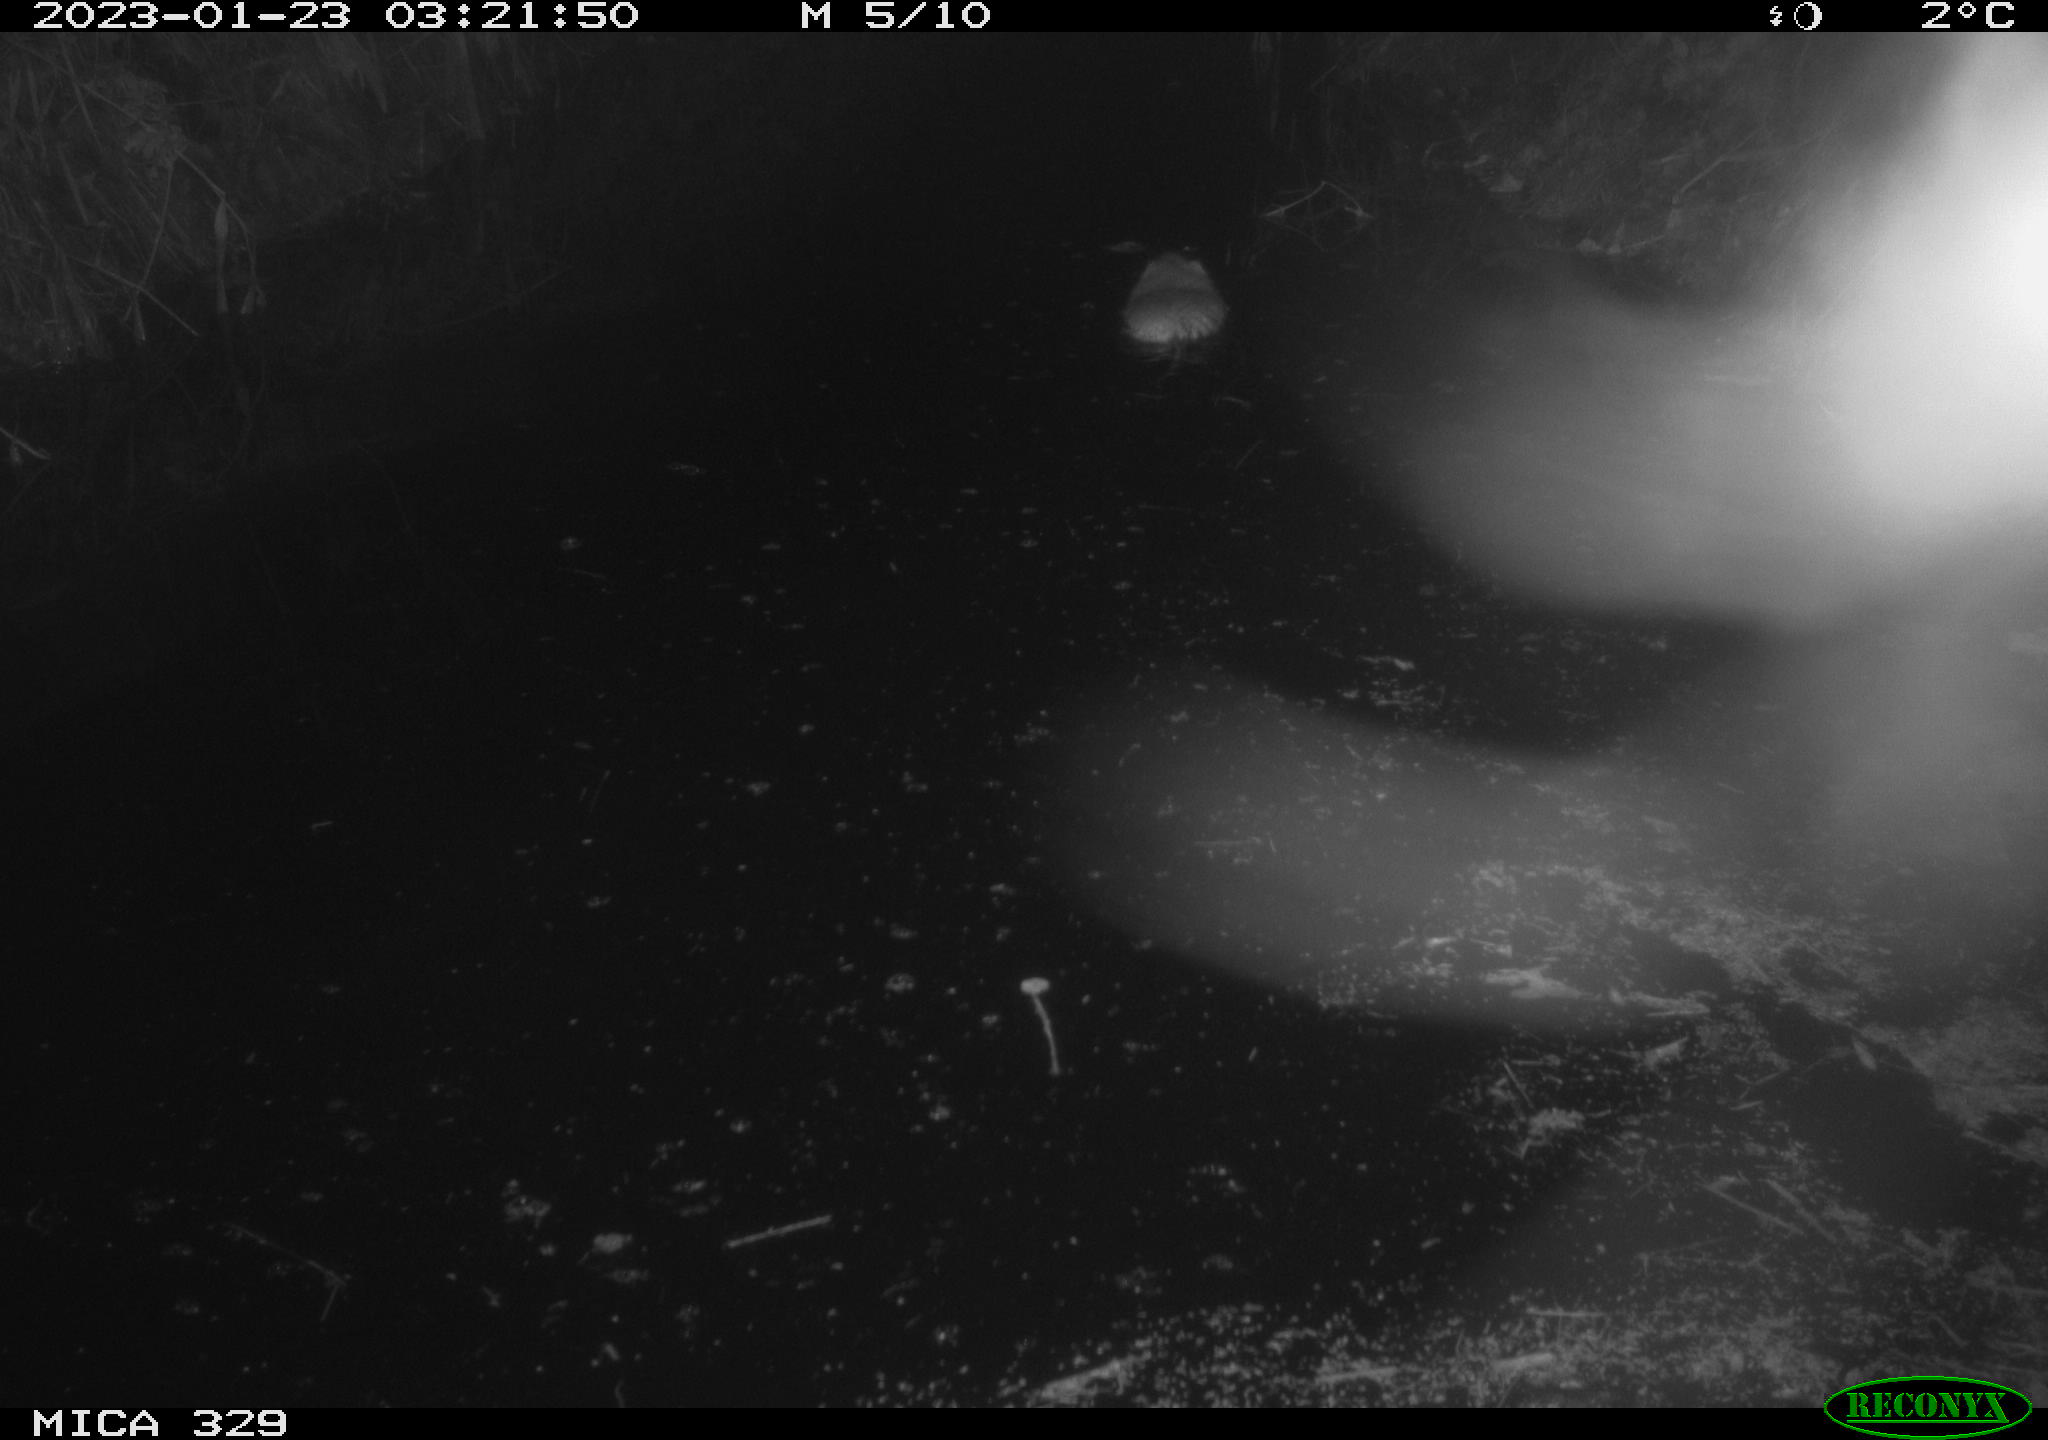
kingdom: Animalia
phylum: Chordata
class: Mammalia
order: Rodentia
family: Cricetidae
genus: Ondatra
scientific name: Ondatra zibethicus
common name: Muskrat
